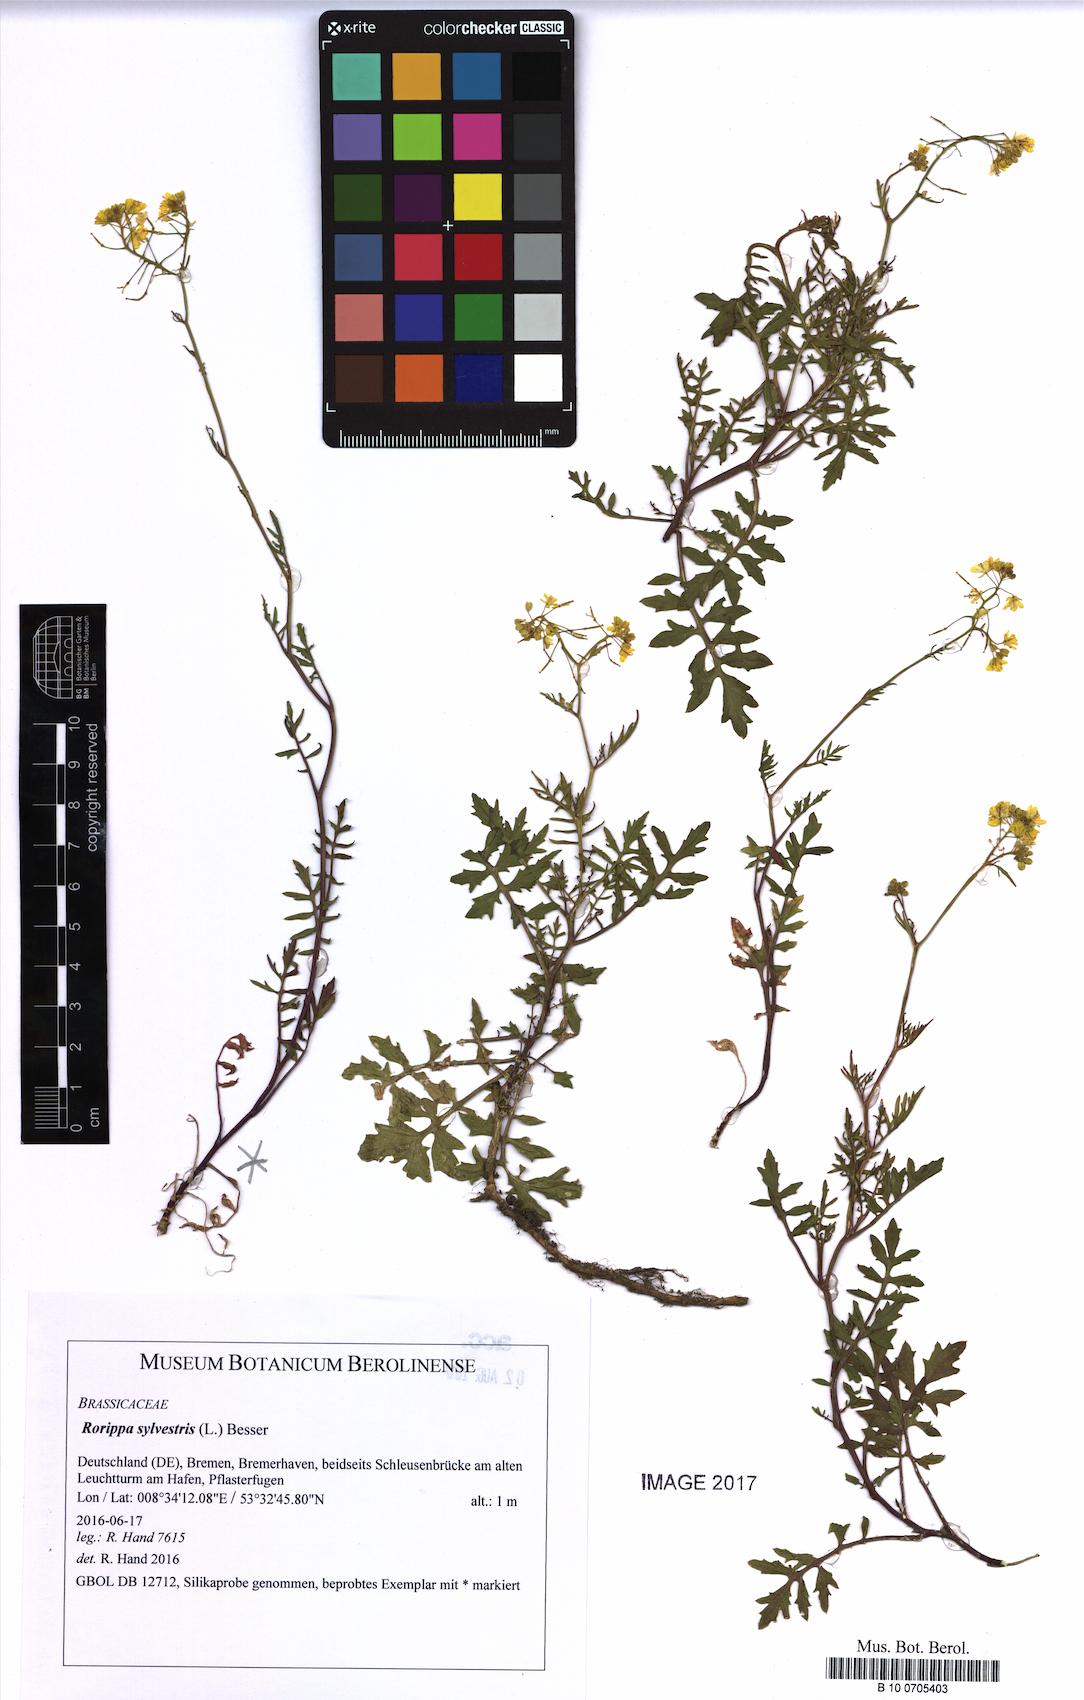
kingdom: Plantae
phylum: Tracheophyta
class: Magnoliopsida
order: Brassicales
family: Brassicaceae
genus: Rorippa
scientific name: Rorippa sylvestris
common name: Creeping yellowcress
